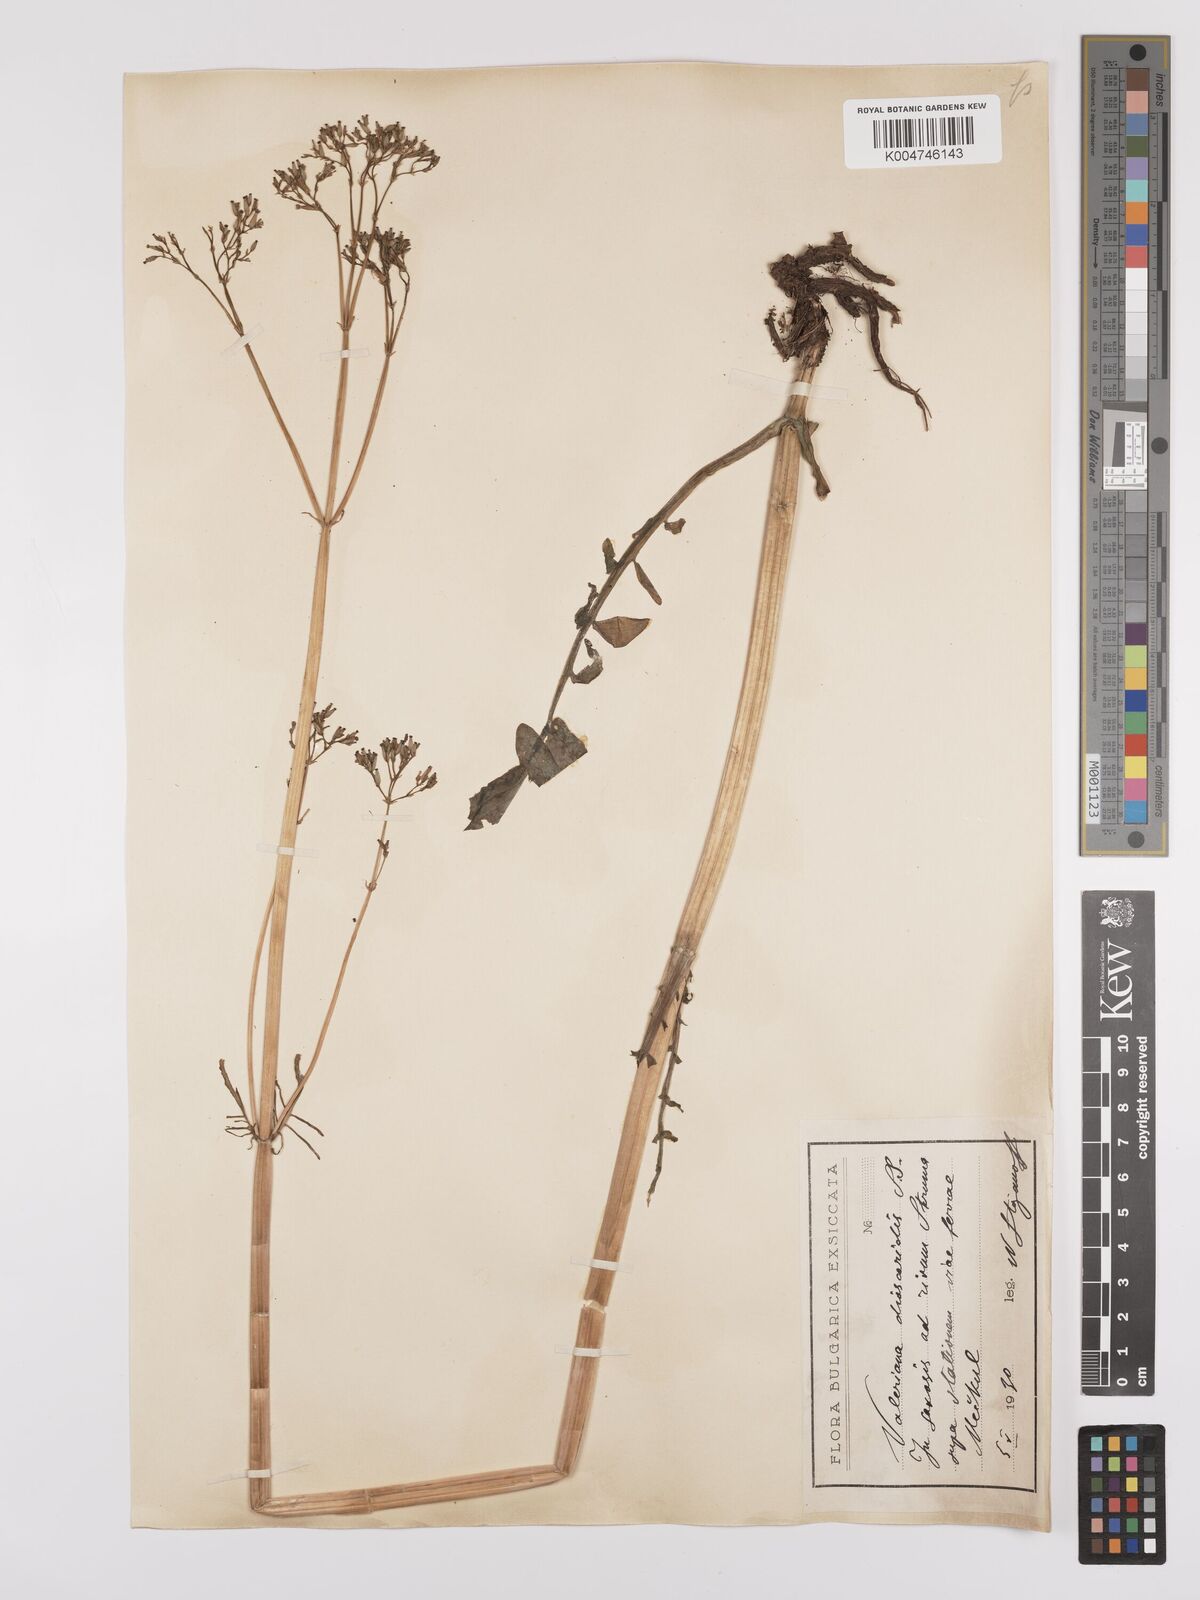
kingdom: Plantae
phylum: Tracheophyta
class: Magnoliopsida
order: Dipsacales
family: Caprifoliaceae
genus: Valeriana
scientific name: Valeriana dioscoridis
